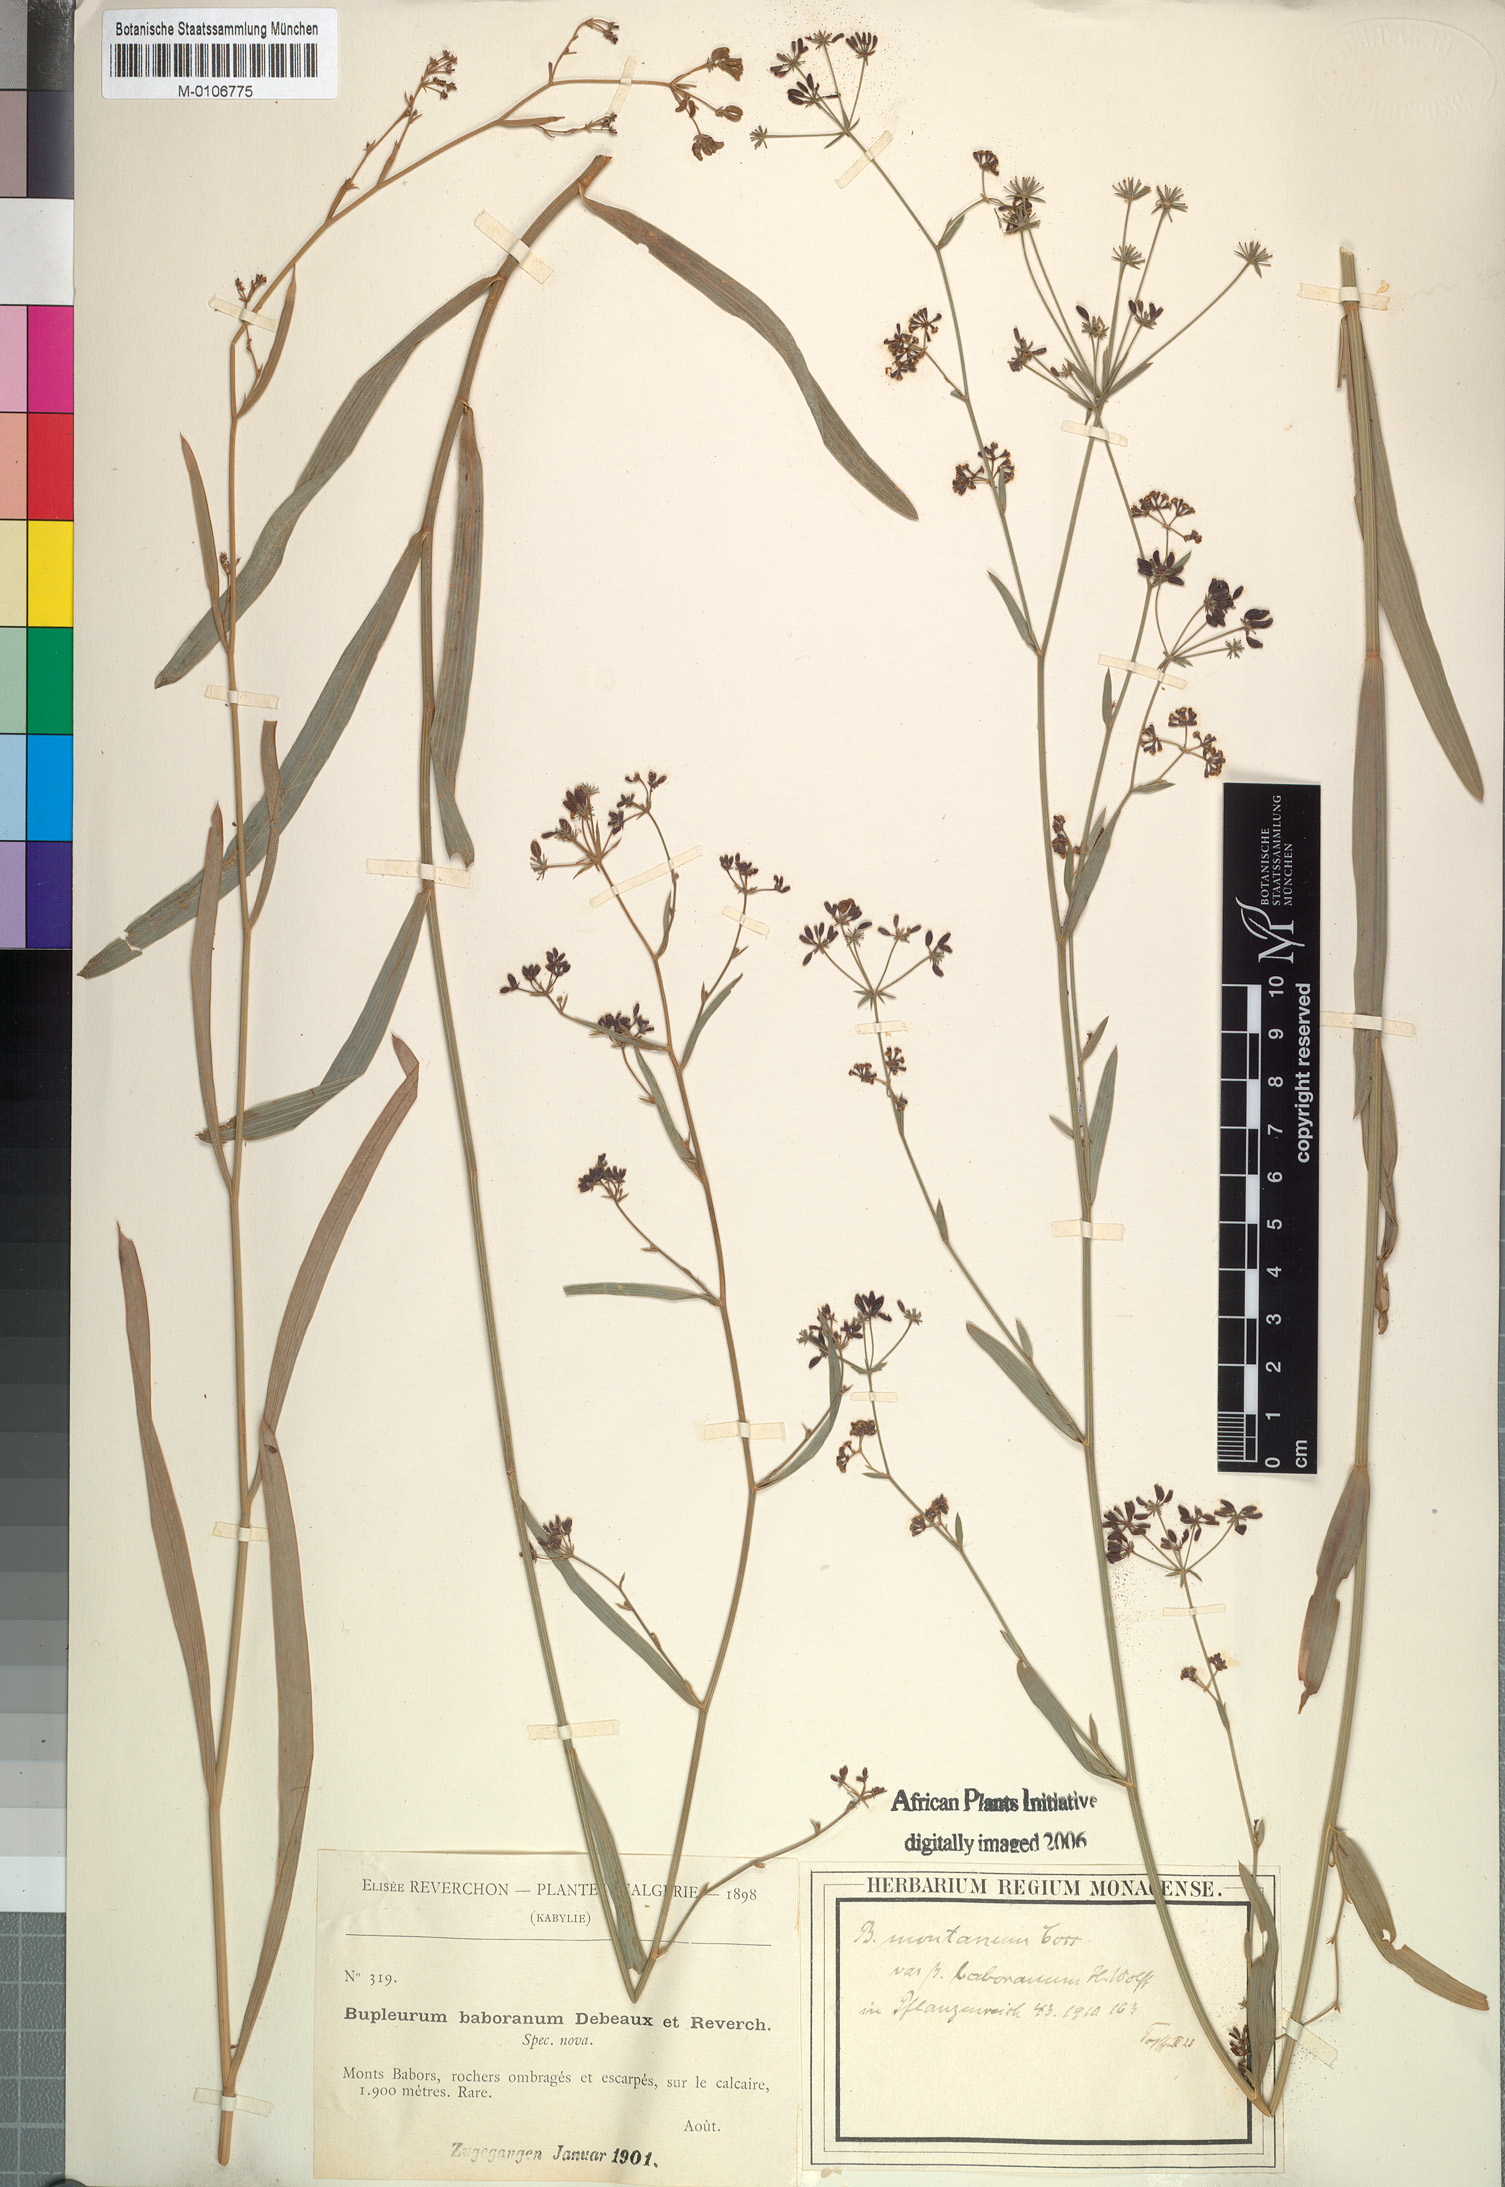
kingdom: Plantae
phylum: Tracheophyta
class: Magnoliopsida
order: Apiales
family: Apiaceae
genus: Bupleurum
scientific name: Bupleurum montanum
